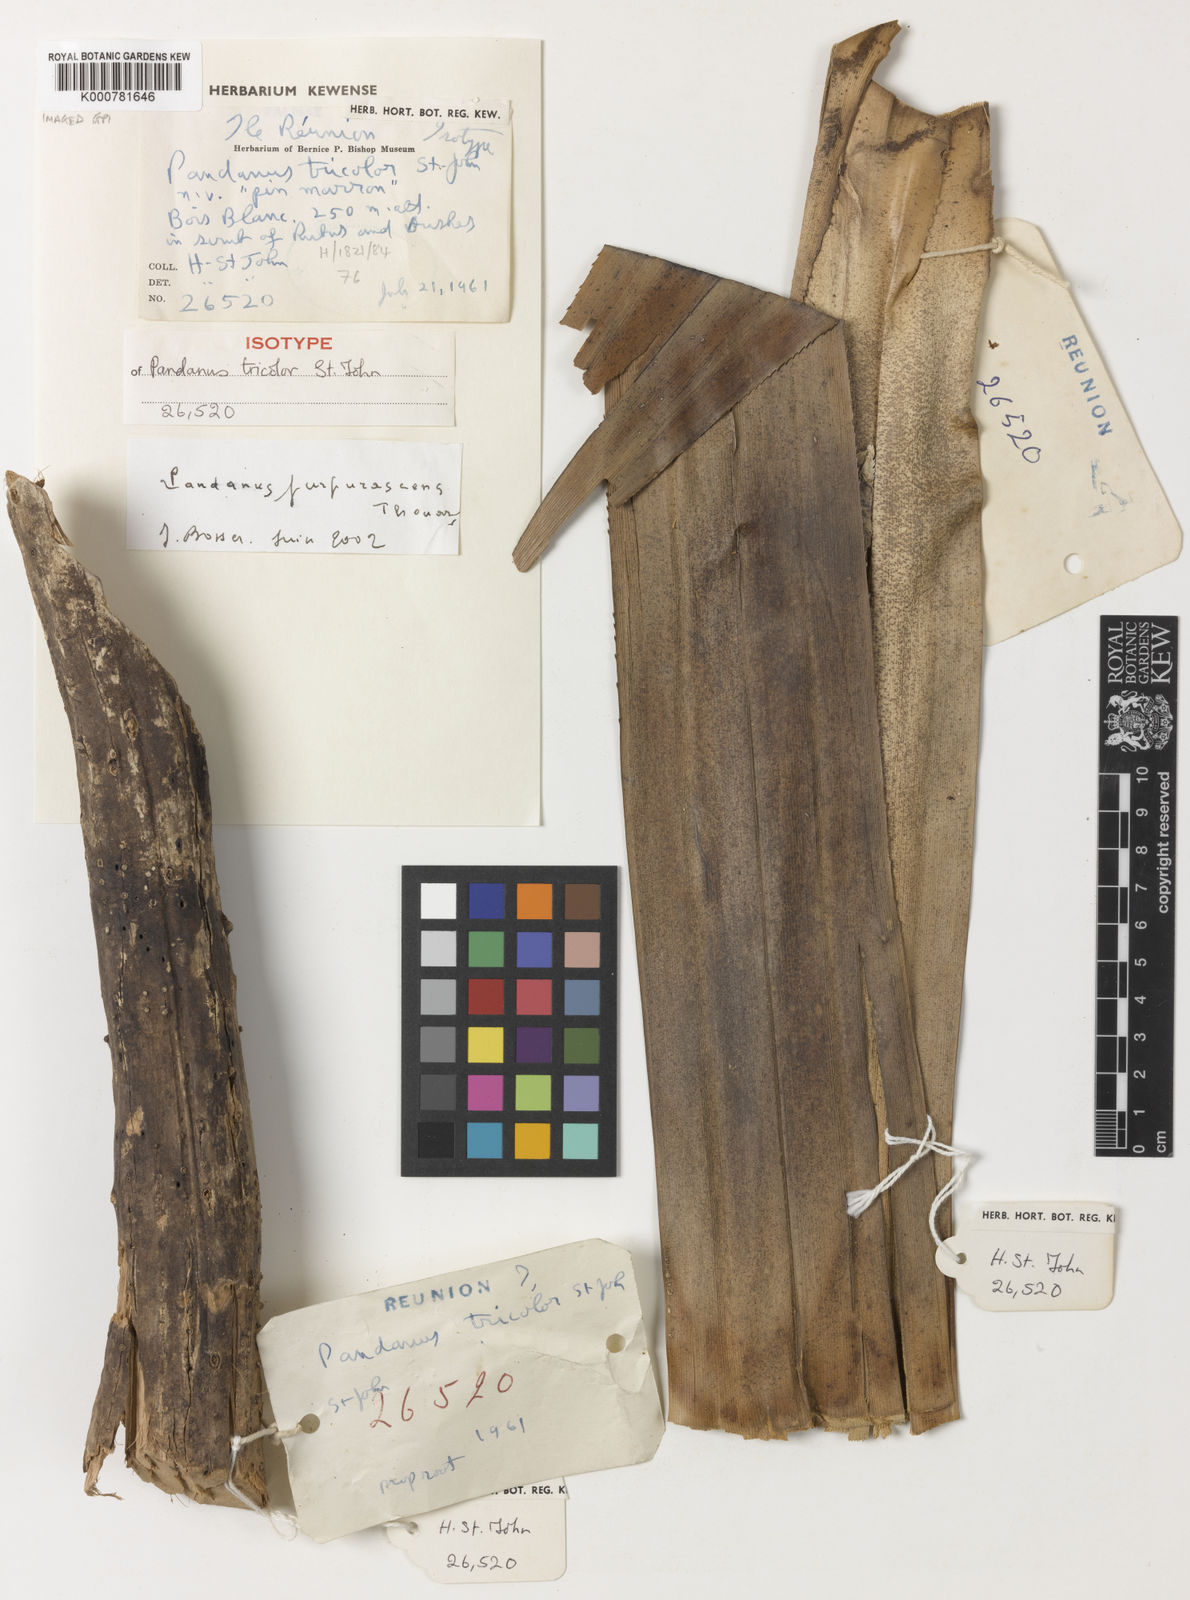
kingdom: Plantae
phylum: Tracheophyta
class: Liliopsida
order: Pandanales
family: Pandanaceae
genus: Pandanus
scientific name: Pandanus
